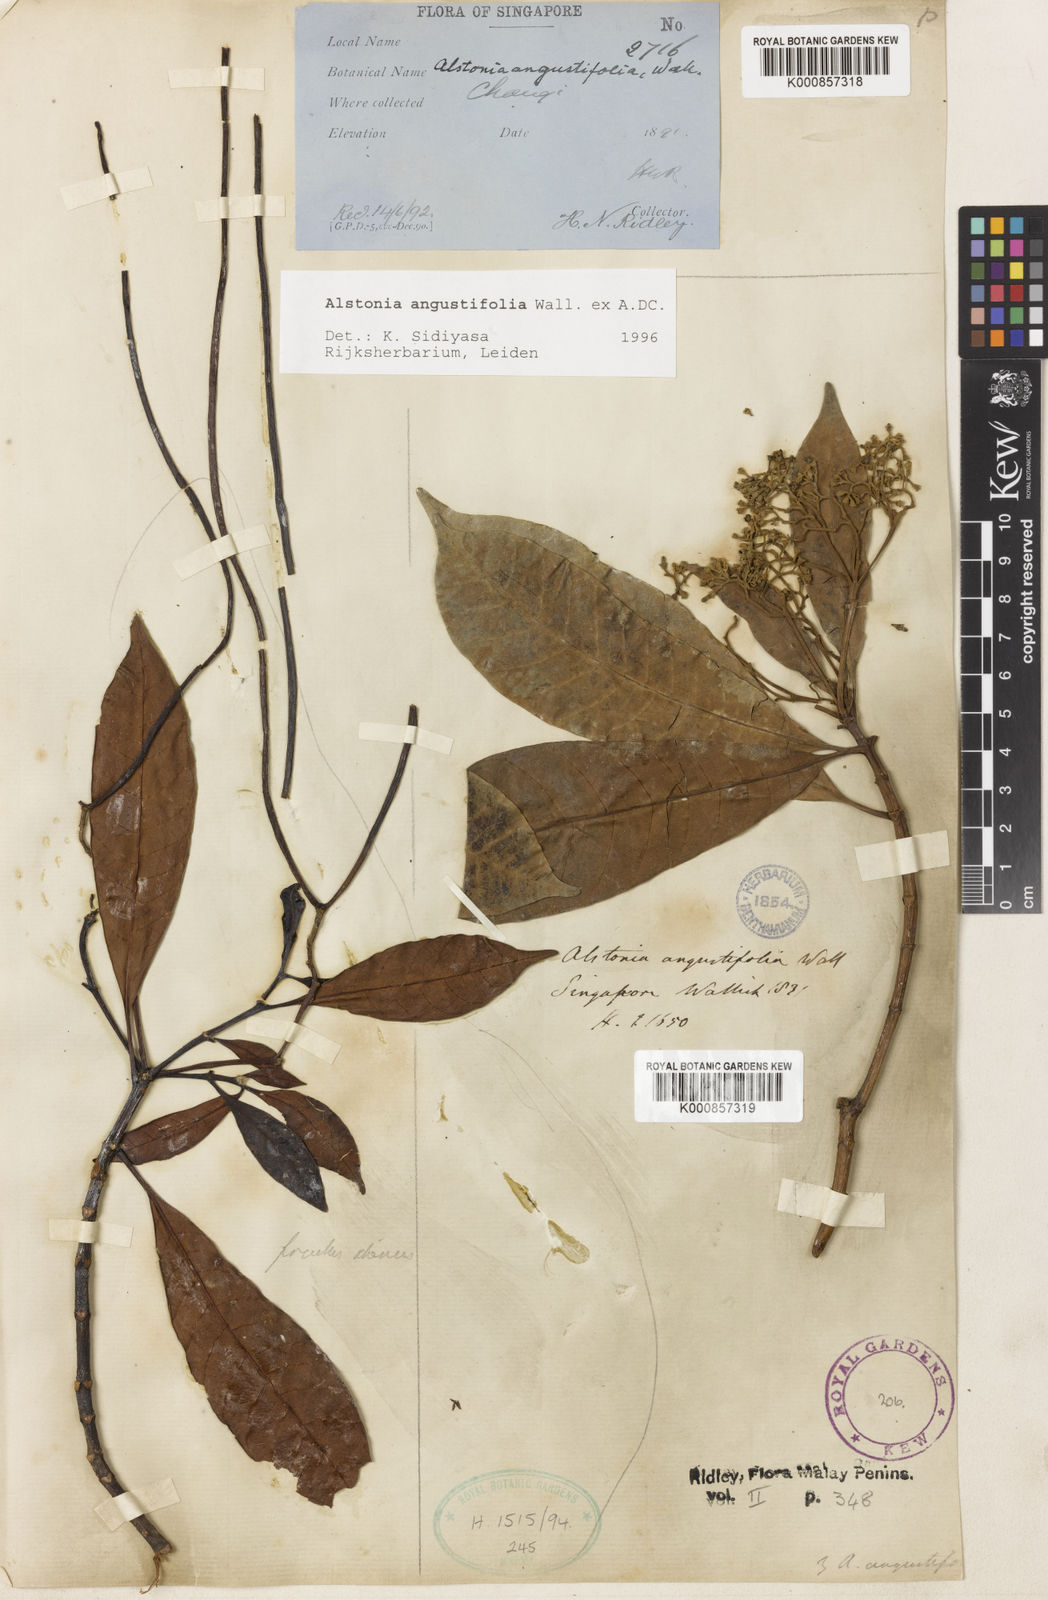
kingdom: Plantae
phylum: Tracheophyta
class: Magnoliopsida
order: Gentianales
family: Apocynaceae
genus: Alstonia
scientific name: Alstonia angustifolia
